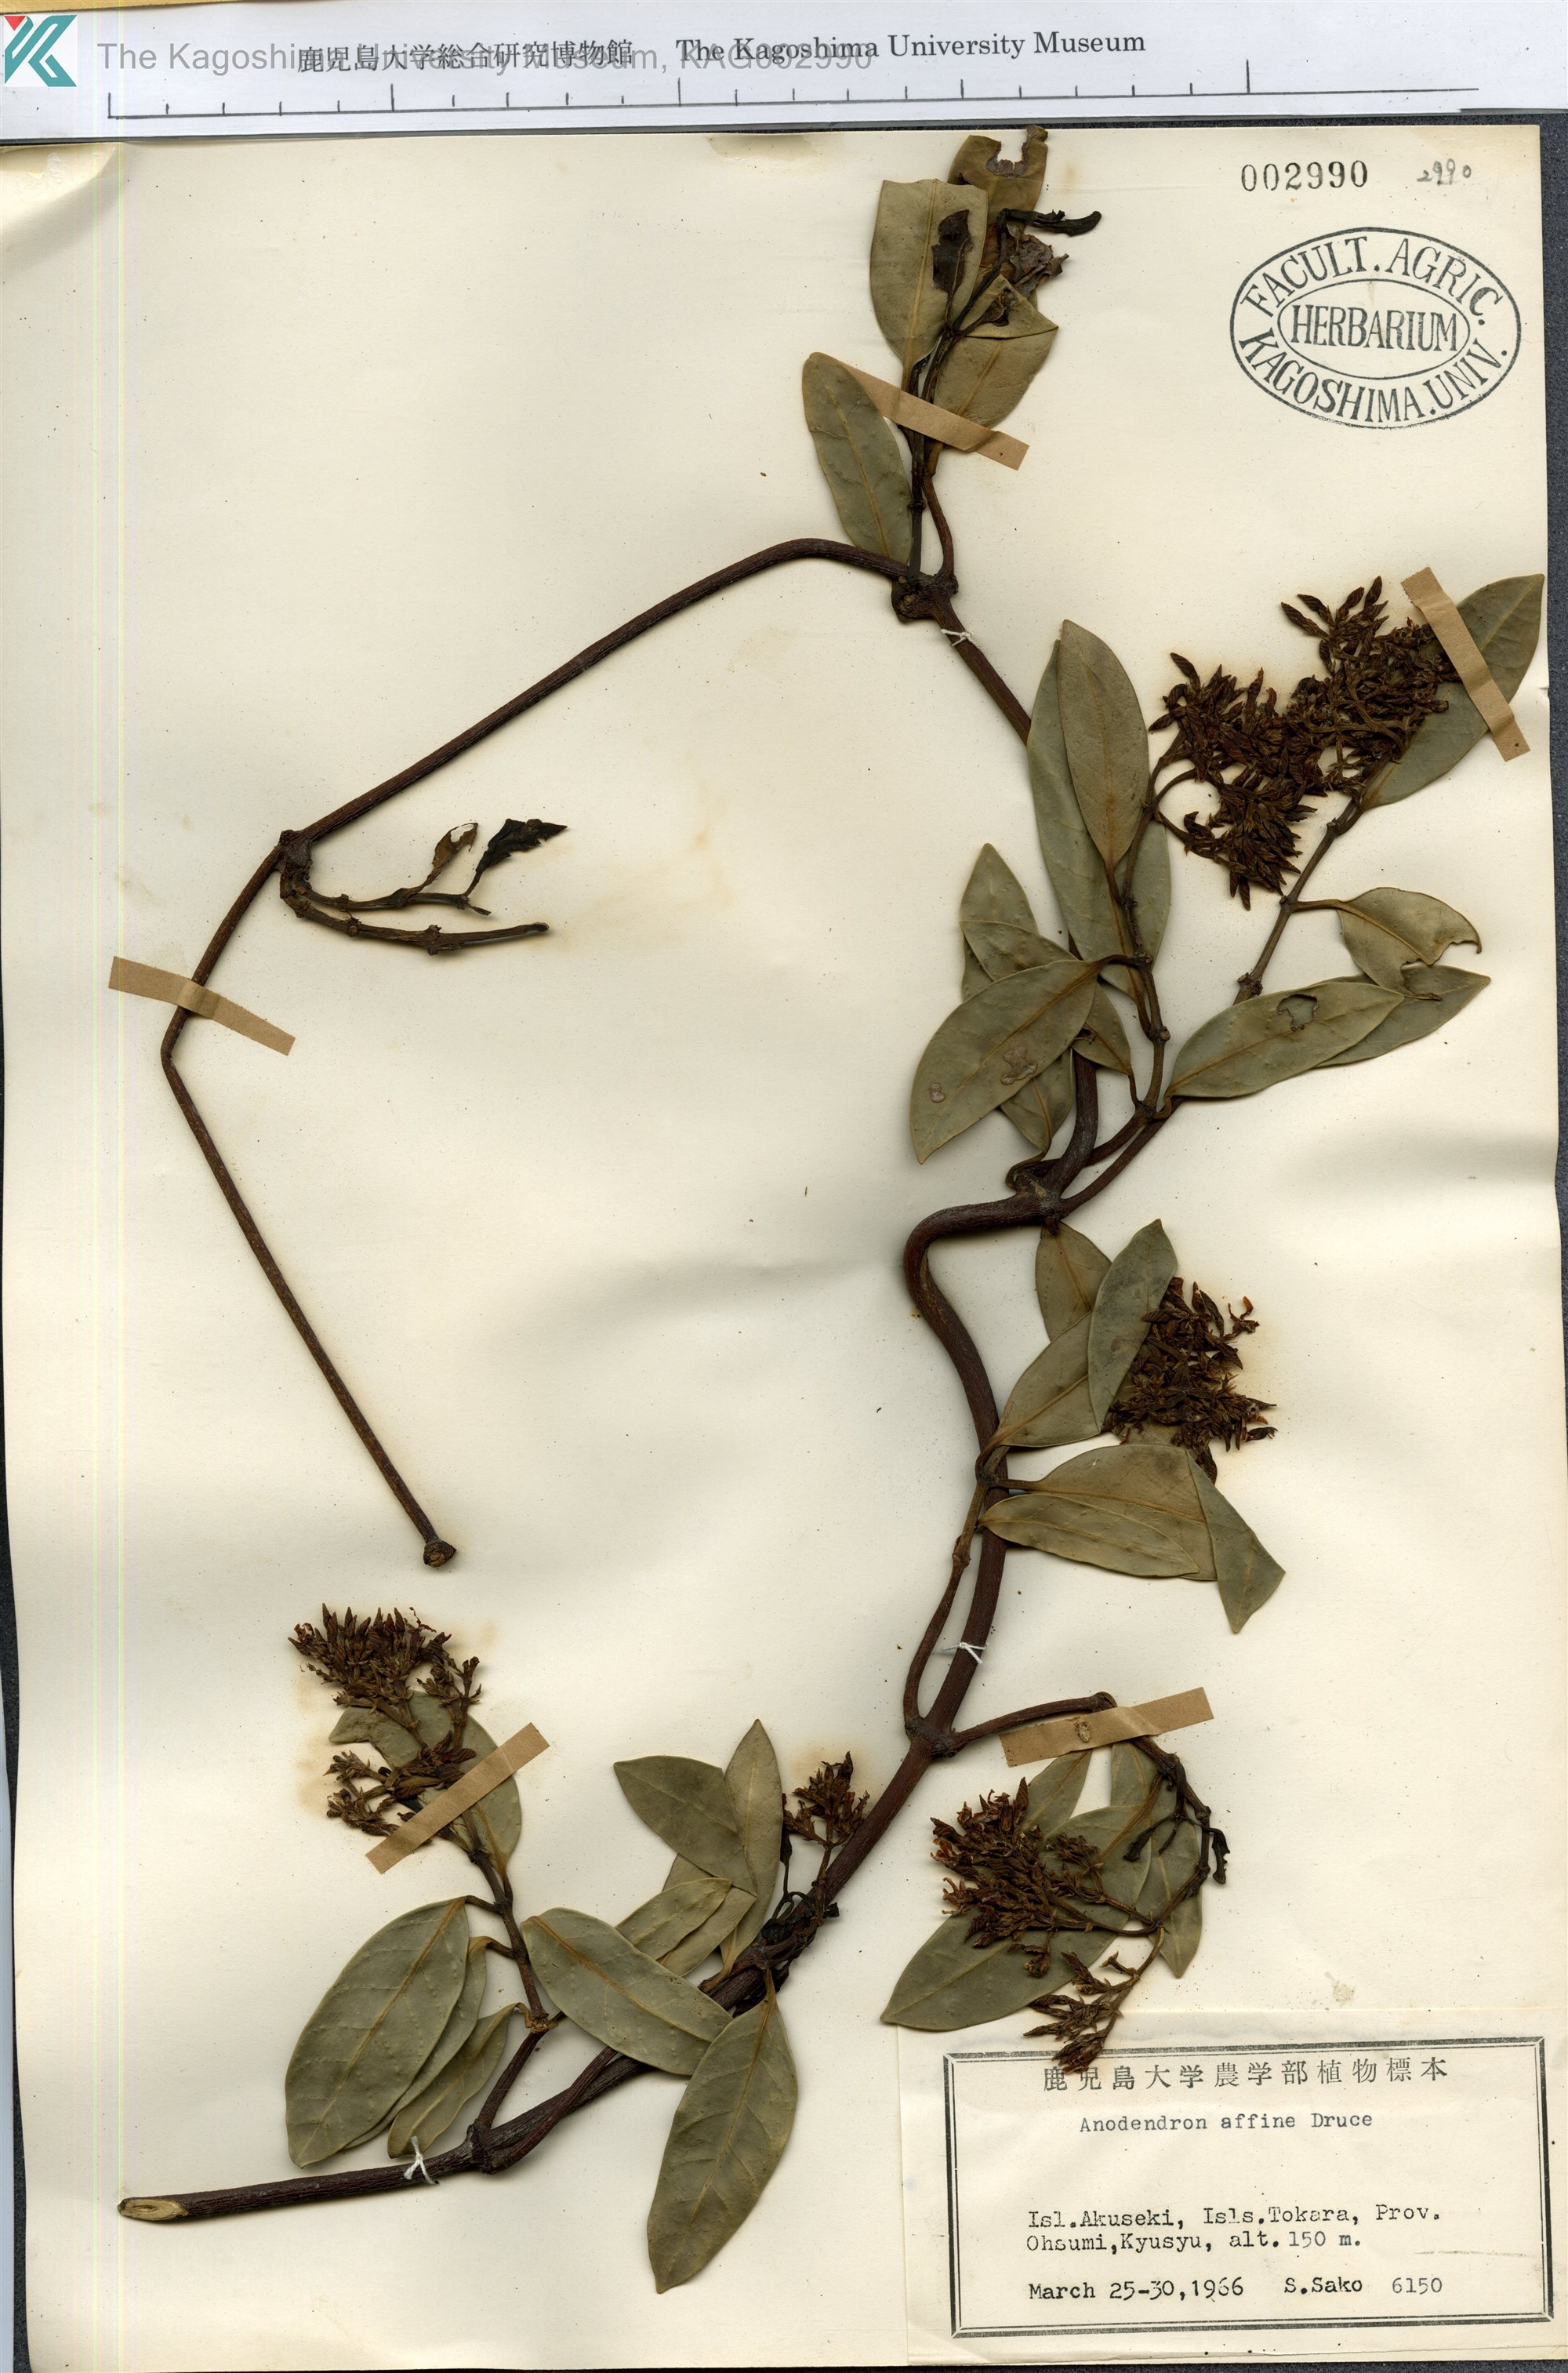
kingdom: Plantae
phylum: Tracheophyta
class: Magnoliopsida
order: Gentianales
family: Apocynaceae
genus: Anodendron
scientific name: Anodendron affine
